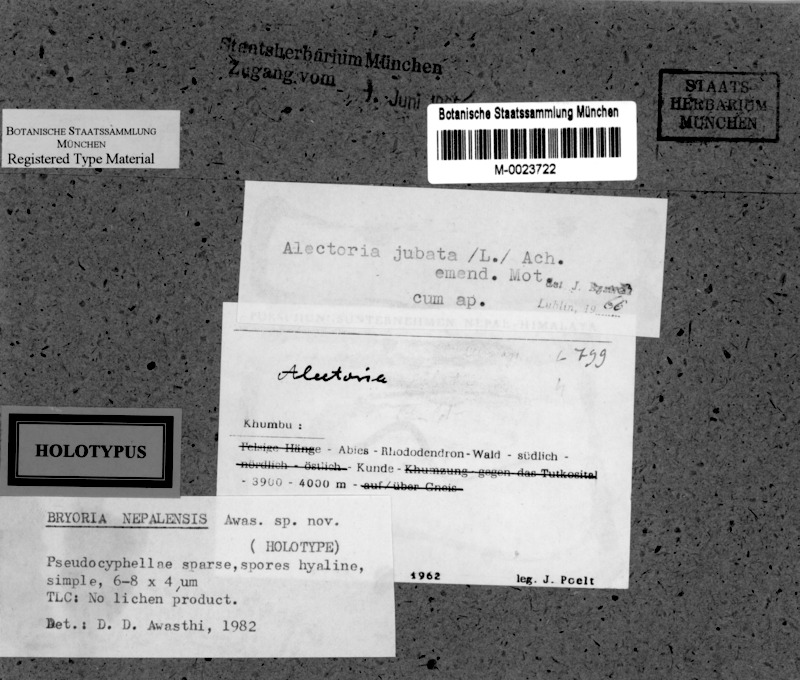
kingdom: Fungi
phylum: Ascomycota
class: Lecanoromycetes
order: Lecanorales
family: Parmeliaceae
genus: Bryoria
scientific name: Bryoria nepalensis
